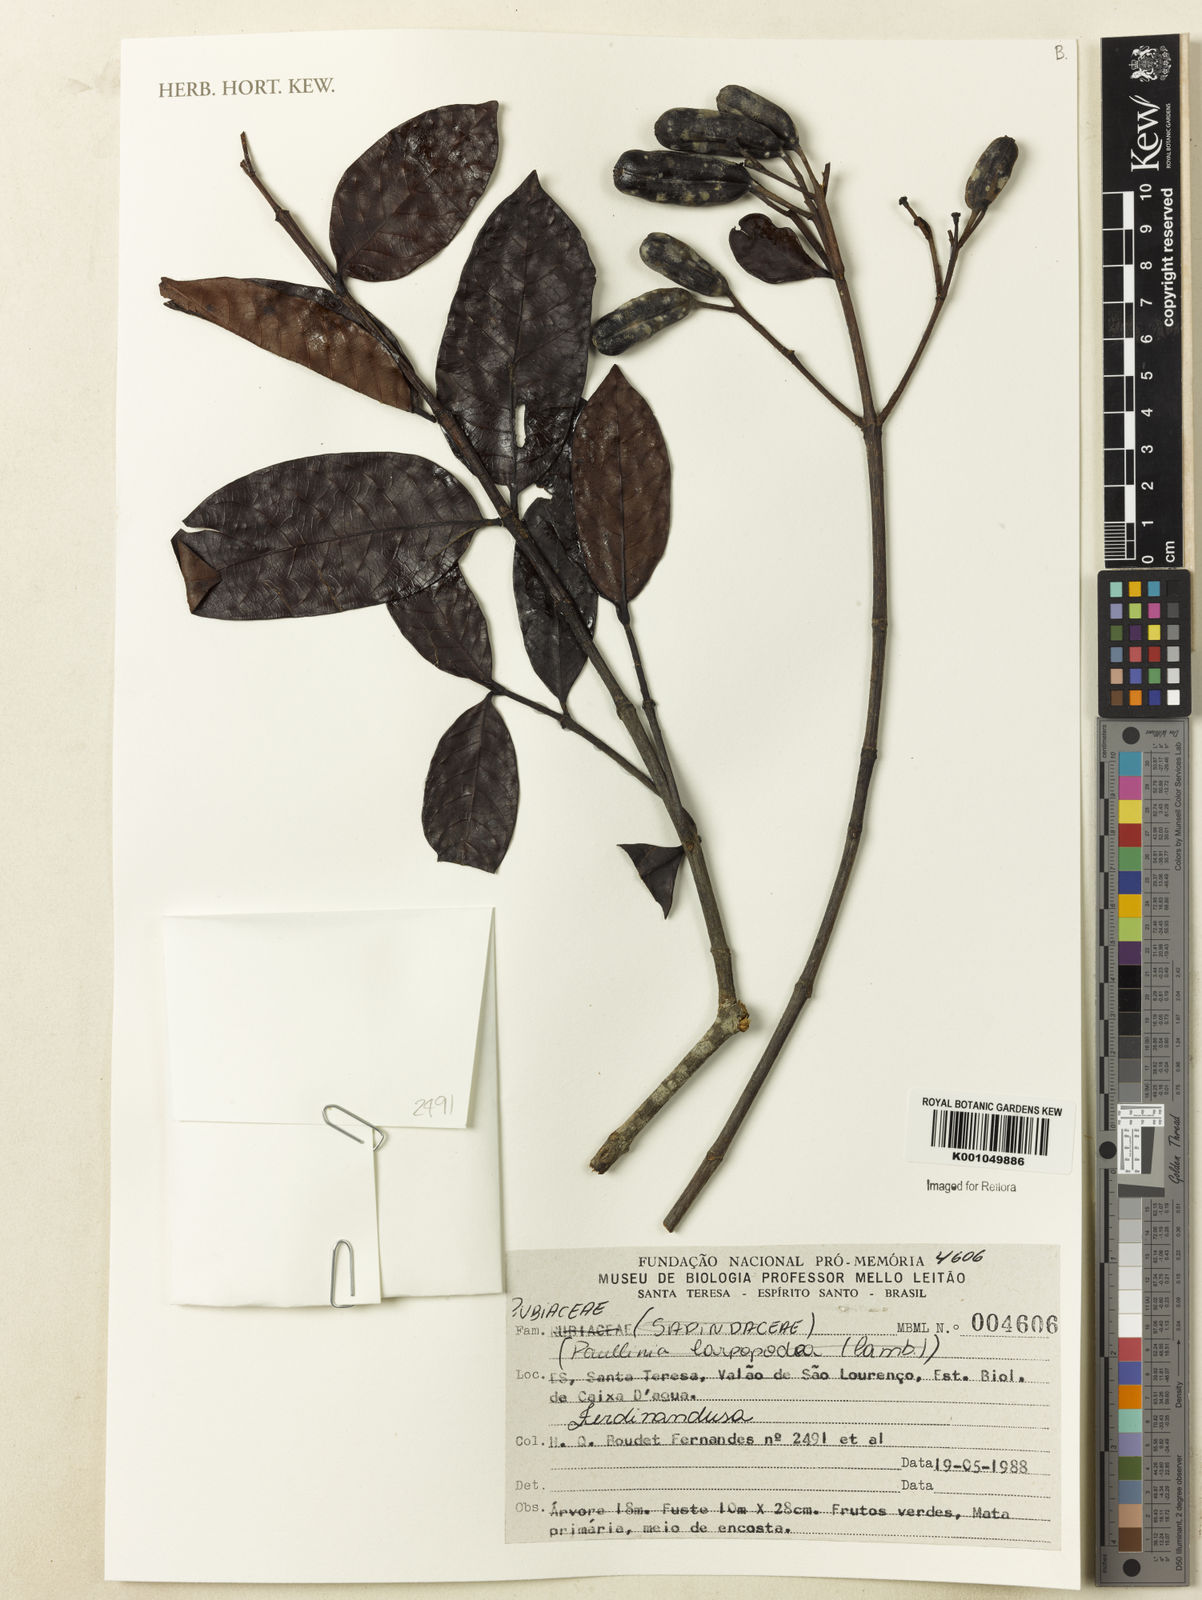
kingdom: Plantae
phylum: Tracheophyta
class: Magnoliopsida
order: Gentianales
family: Rubiaceae
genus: Ferdinandusa
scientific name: Ferdinandusa
